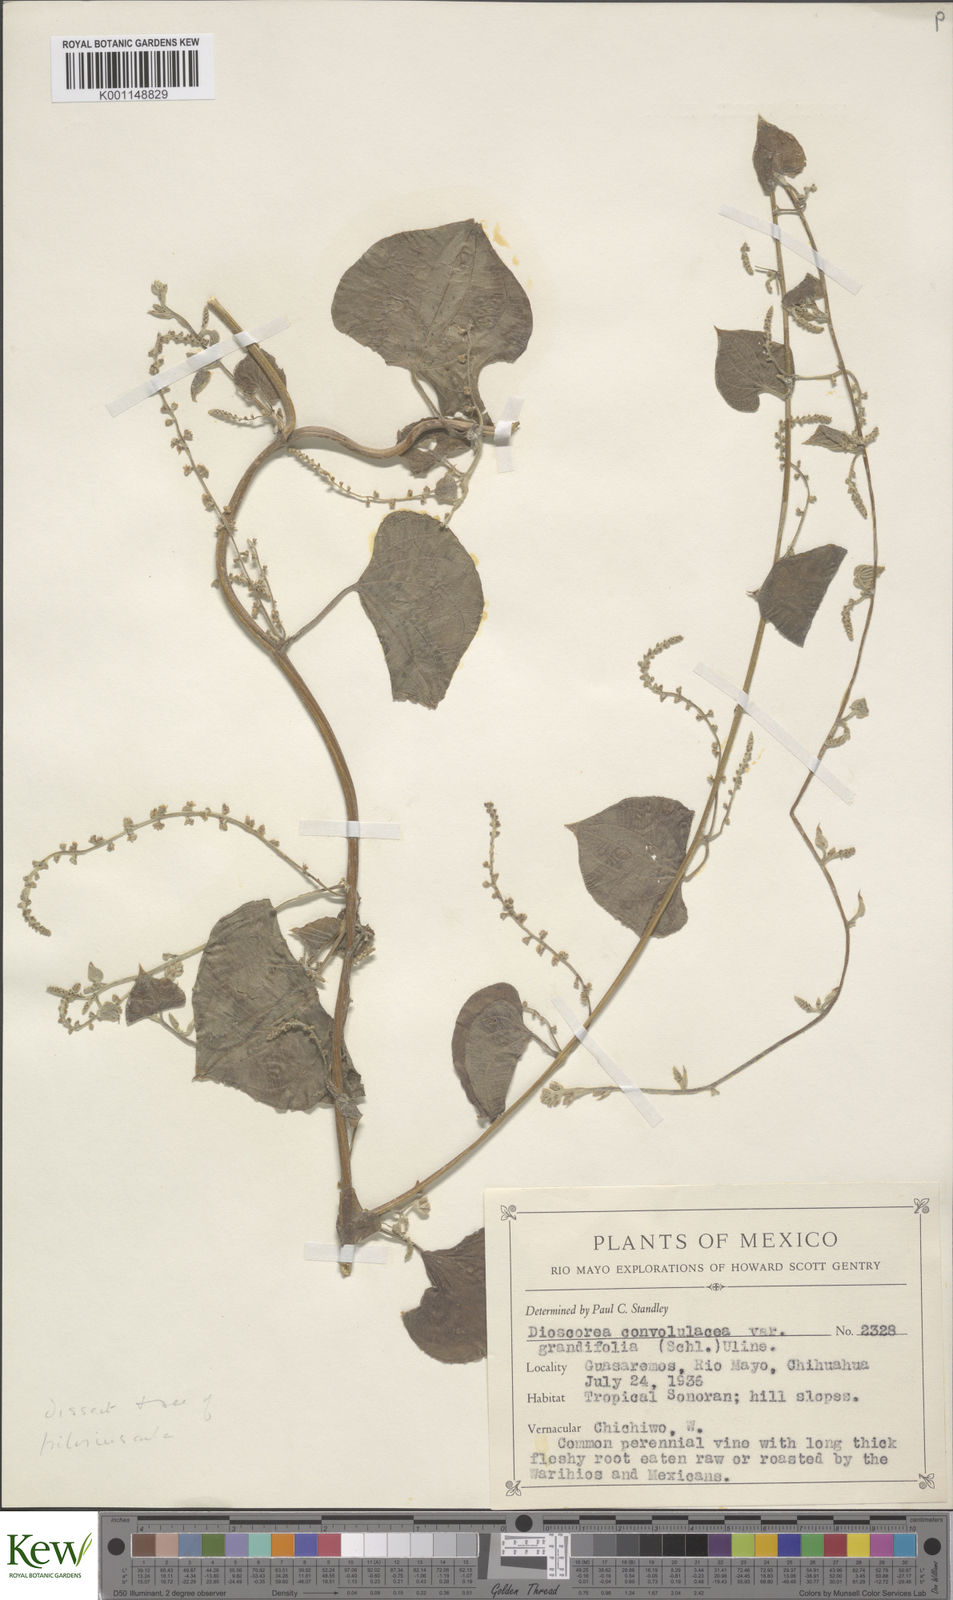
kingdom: Plantae
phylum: Tracheophyta
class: Liliopsida
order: Dioscoreales
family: Dioscoreaceae
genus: Dioscorea
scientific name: Dioscorea pilosiuscula
